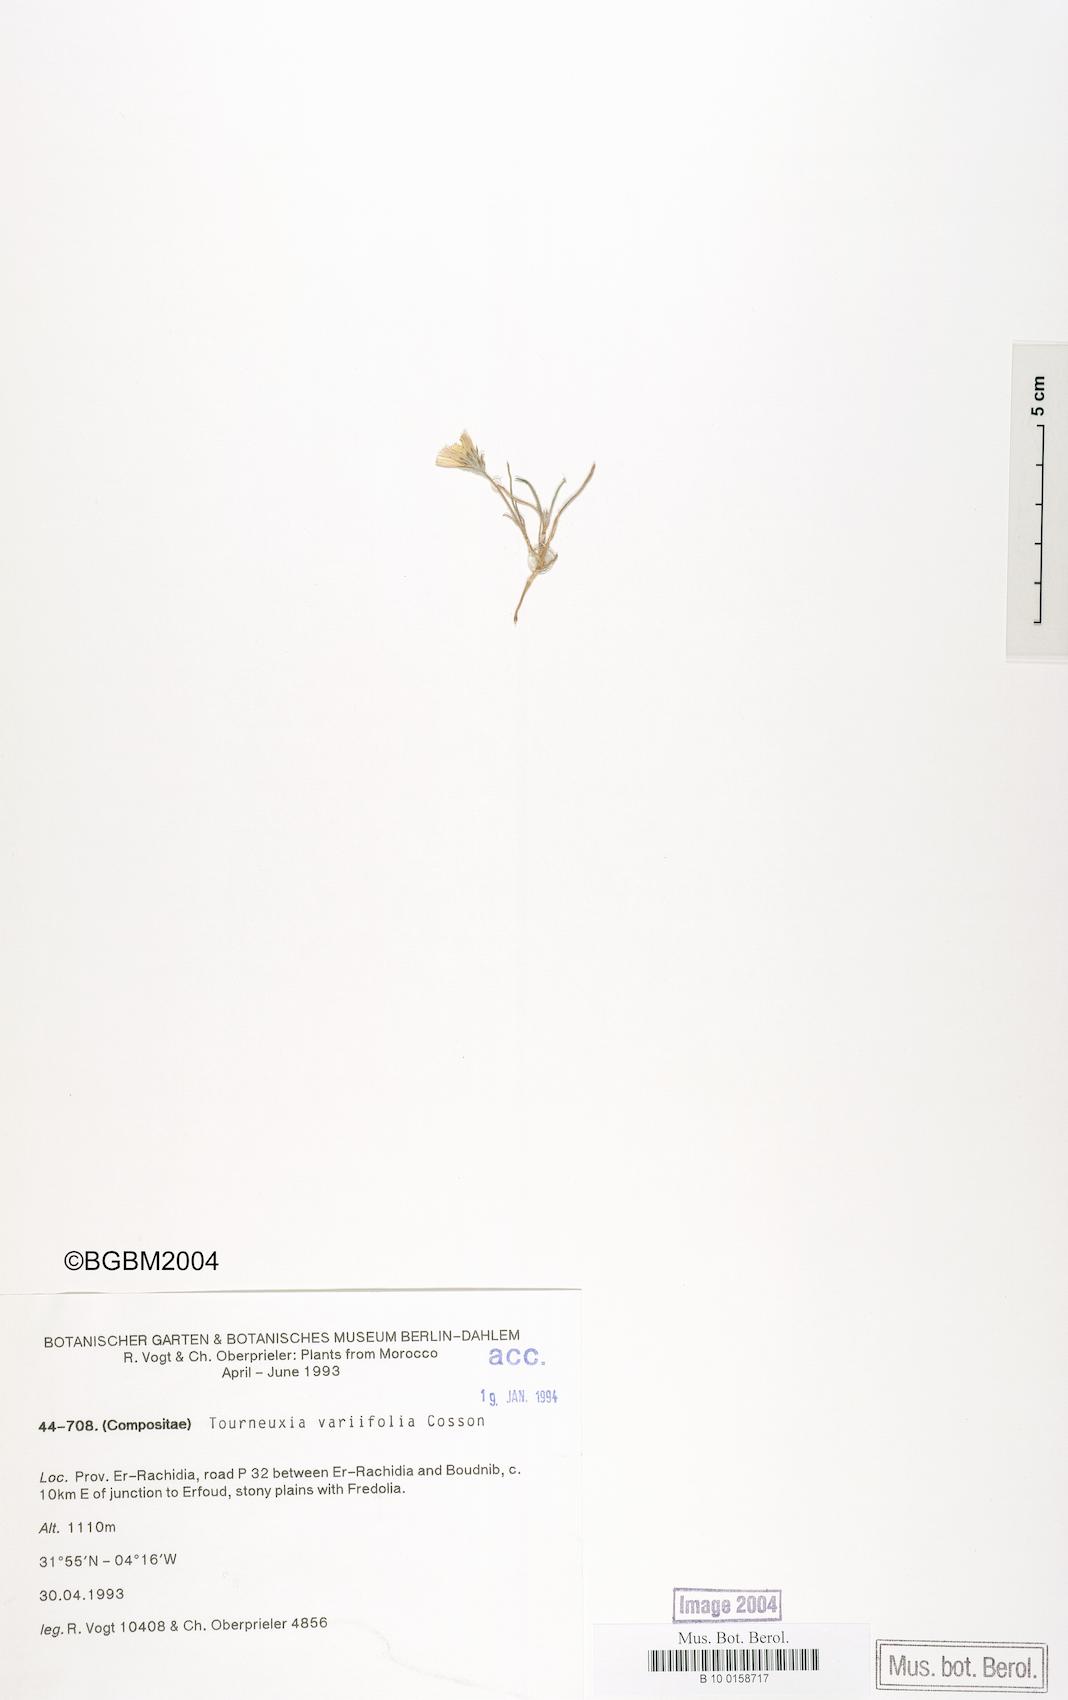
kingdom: Plantae
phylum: Tracheophyta
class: Magnoliopsida
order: Asterales
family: Asteraceae
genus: Tourneuxia
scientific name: Tourneuxia variifolia
